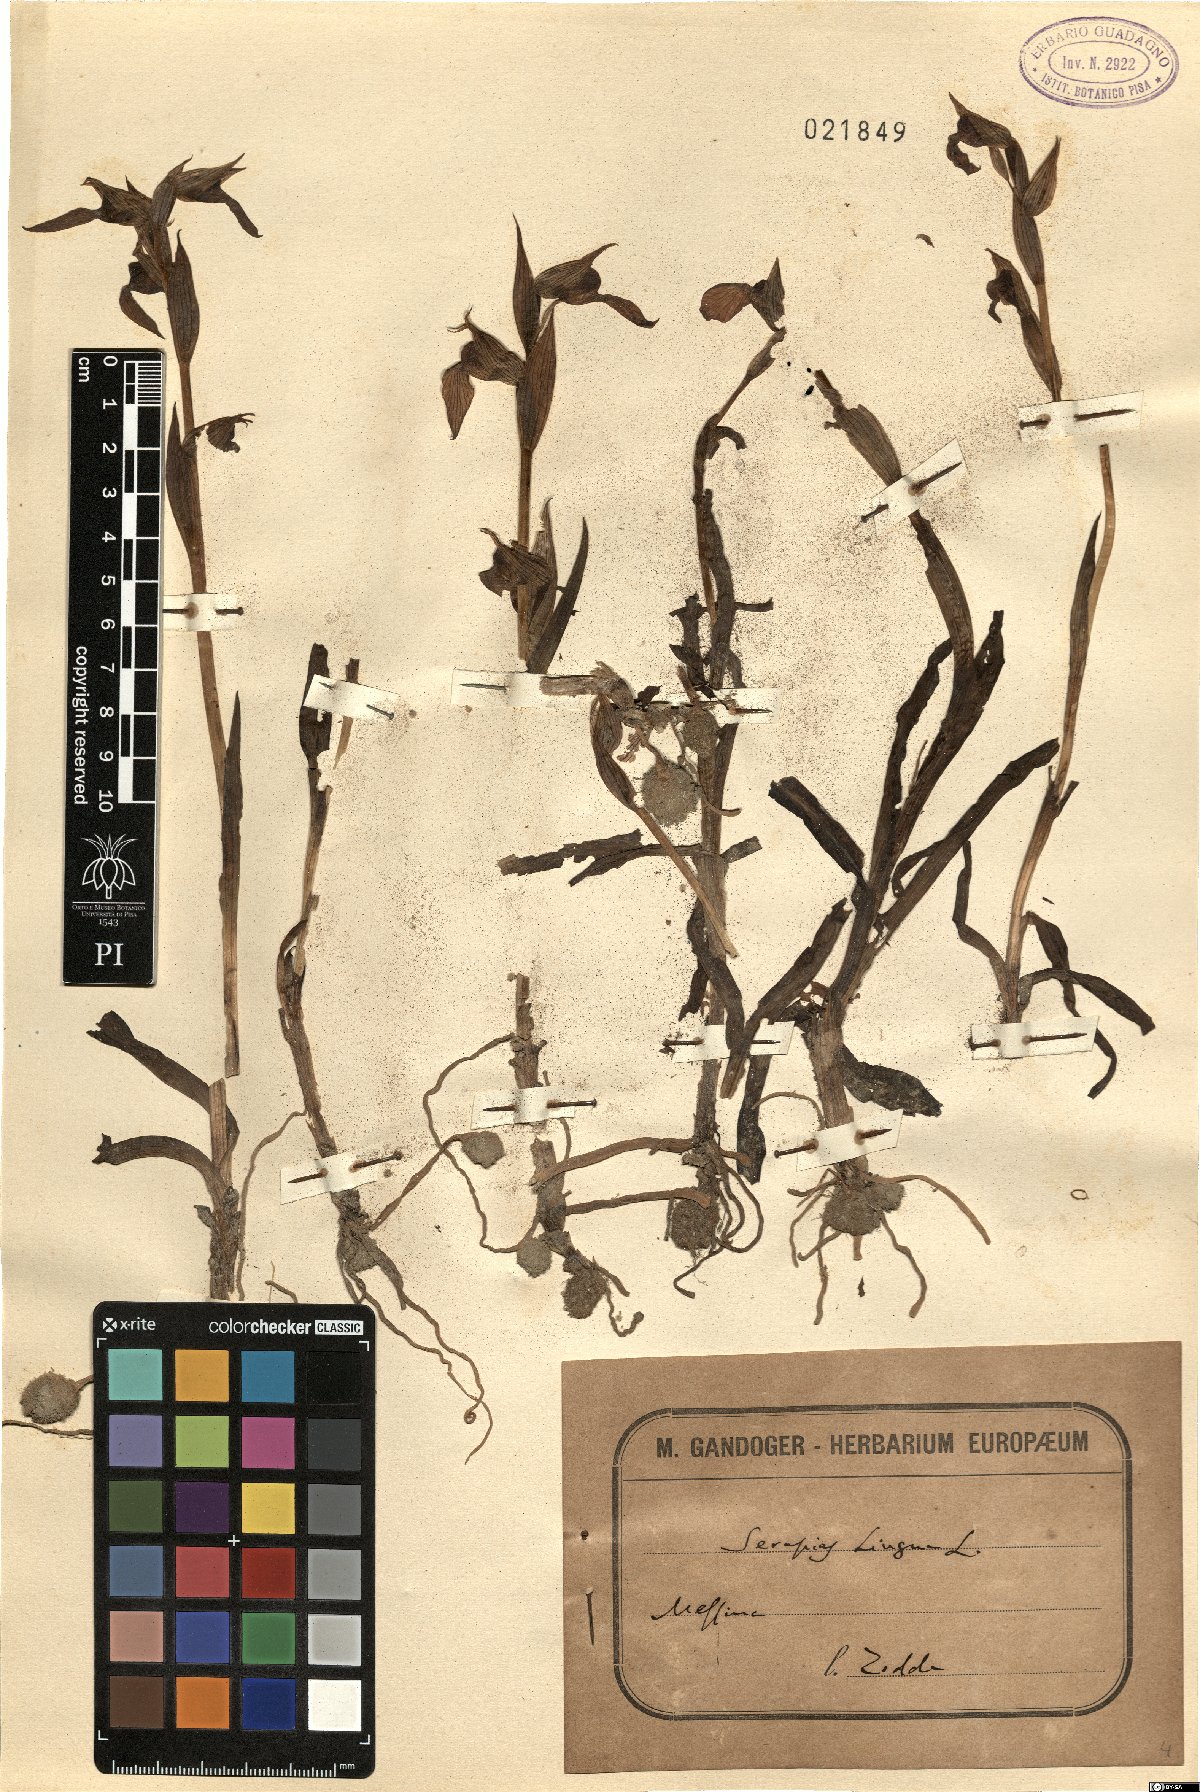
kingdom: Plantae
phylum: Tracheophyta
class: Liliopsida
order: Asparagales
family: Orchidaceae
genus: Serapias
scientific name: Serapias lingua
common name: Tongue-orchid
